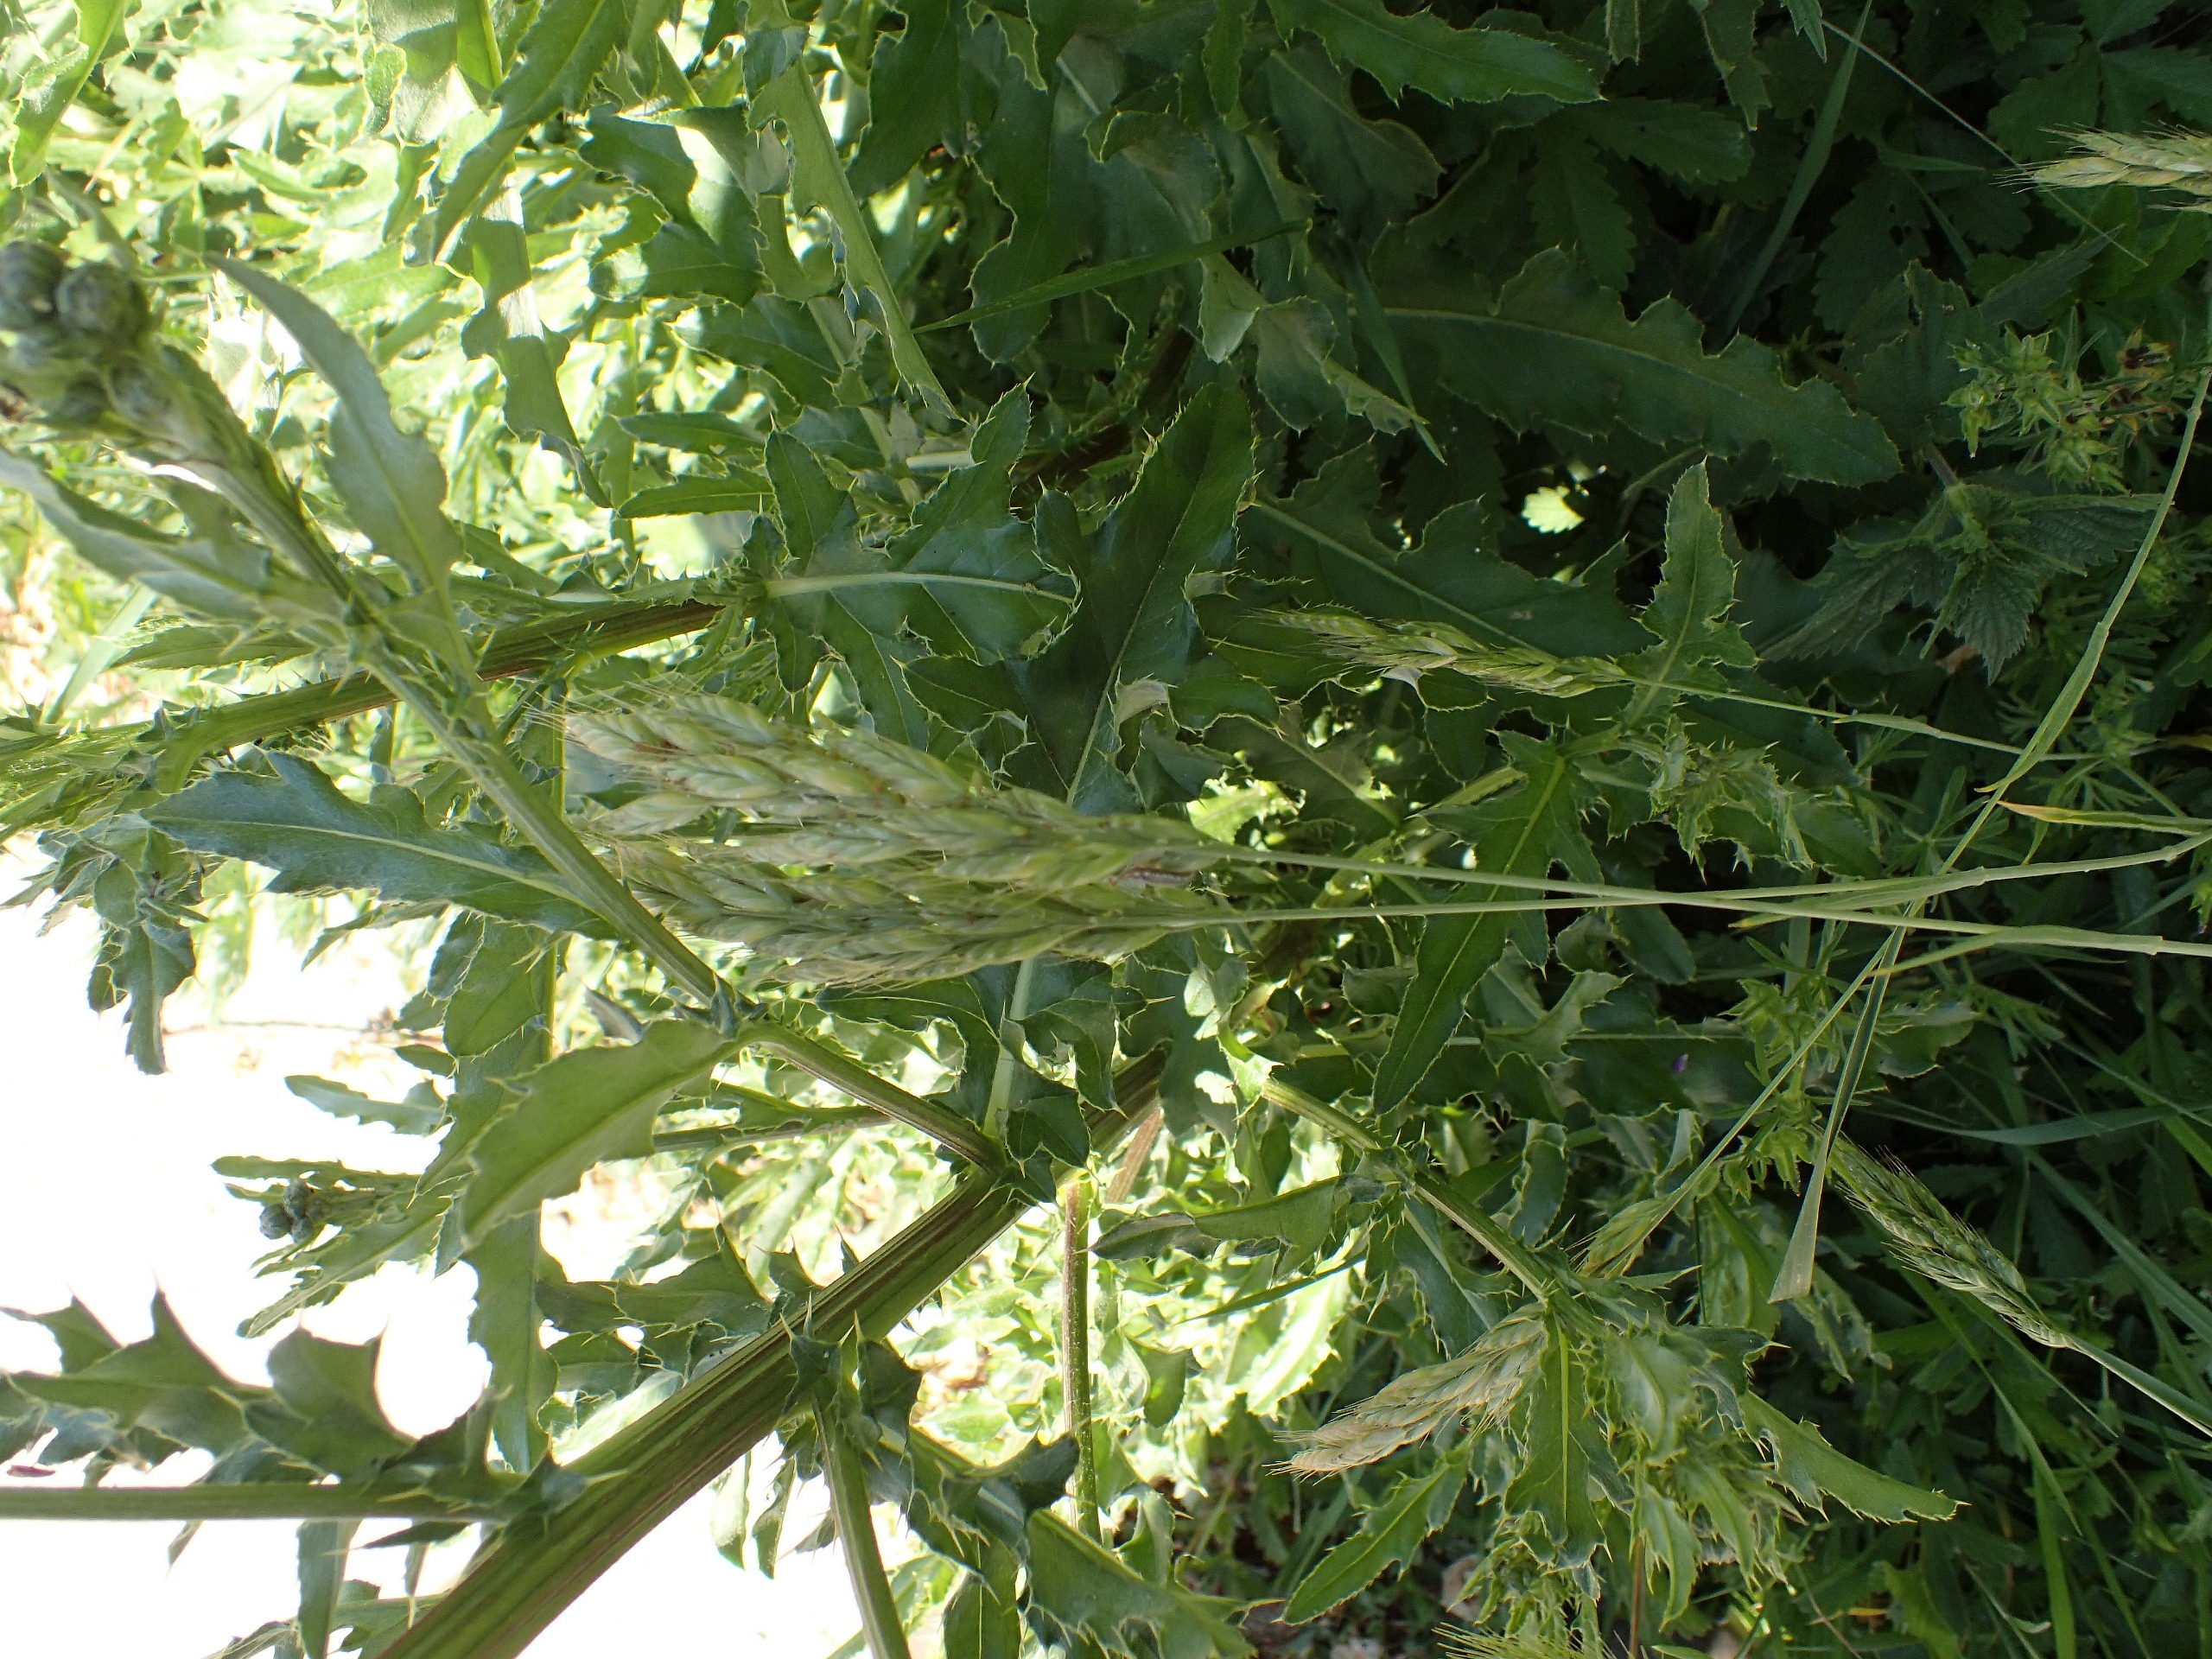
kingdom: Plantae
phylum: Tracheophyta
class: Liliopsida
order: Poales
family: Poaceae
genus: Bromus
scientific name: Bromus hordeaceus
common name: Blød hejre
